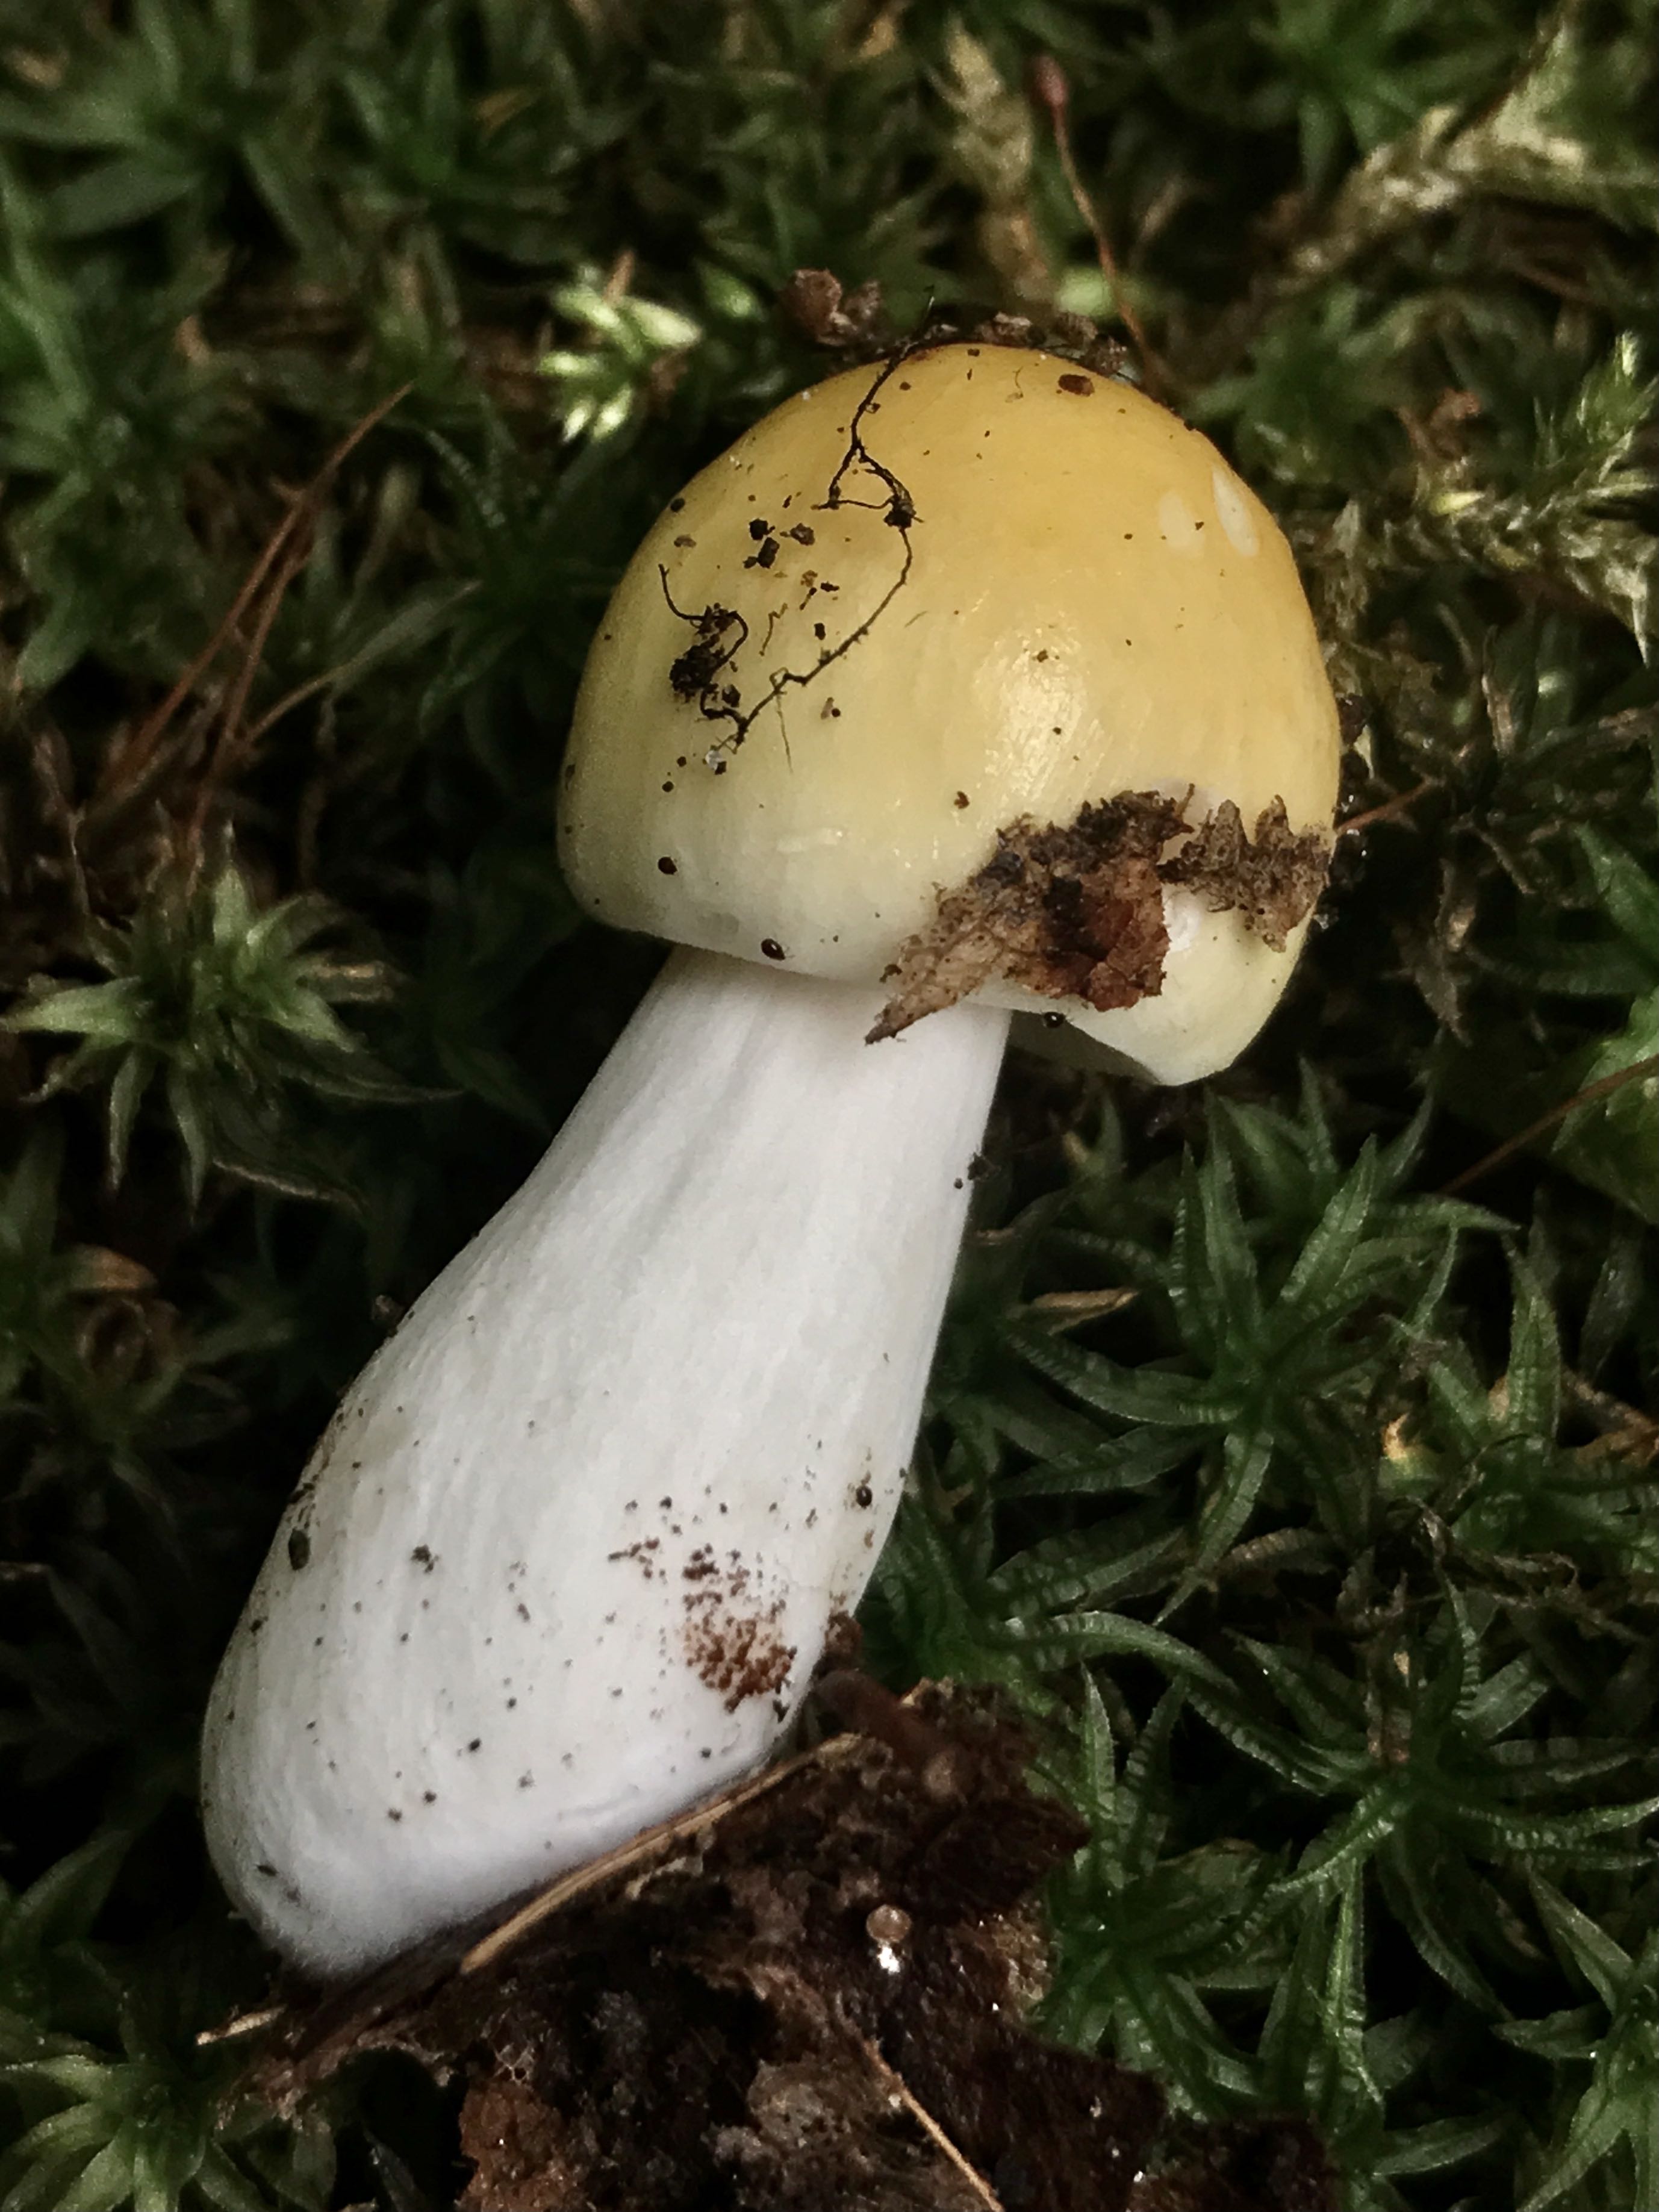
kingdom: Fungi
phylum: Basidiomycota
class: Agaricomycetes
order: Russulales
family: Russulaceae
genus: Russula
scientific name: Russula ochroleuca
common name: okkergul skørhat
